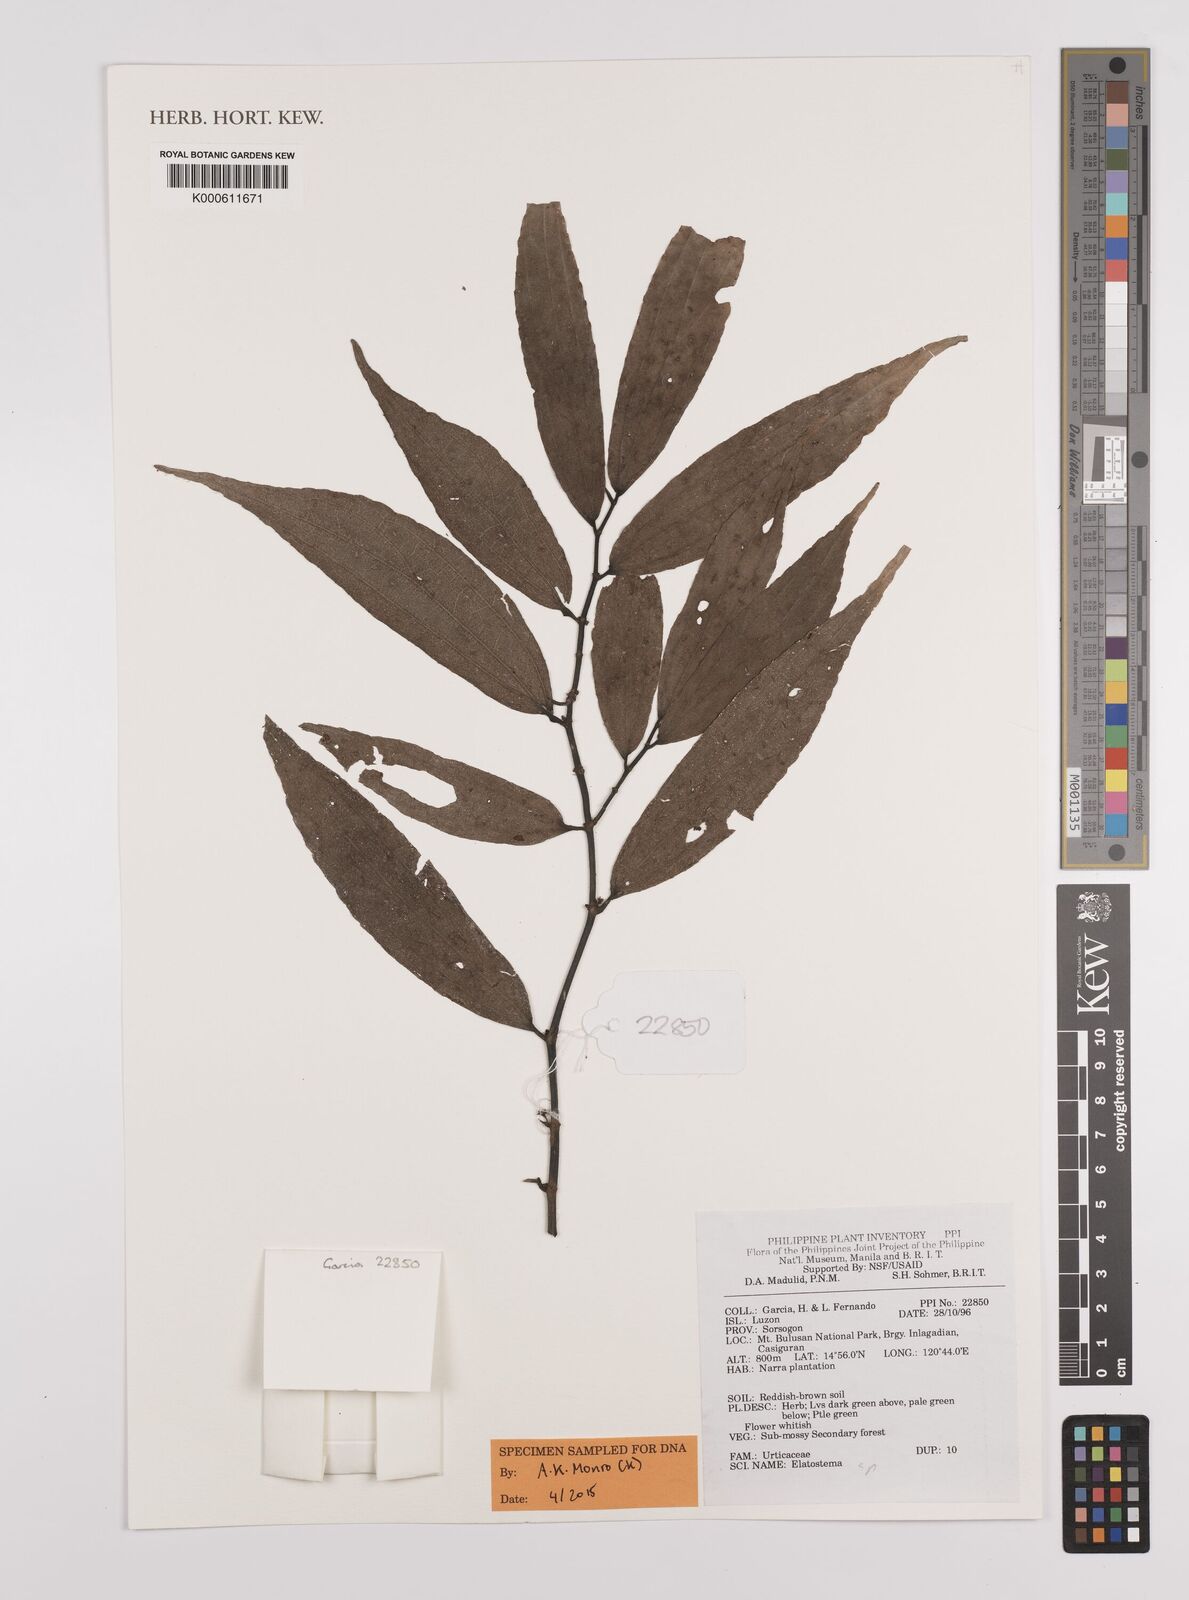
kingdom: Plantae
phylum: Tracheophyta
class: Magnoliopsida
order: Rosales
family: Urticaceae
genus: Elatostema
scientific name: Elatostema
